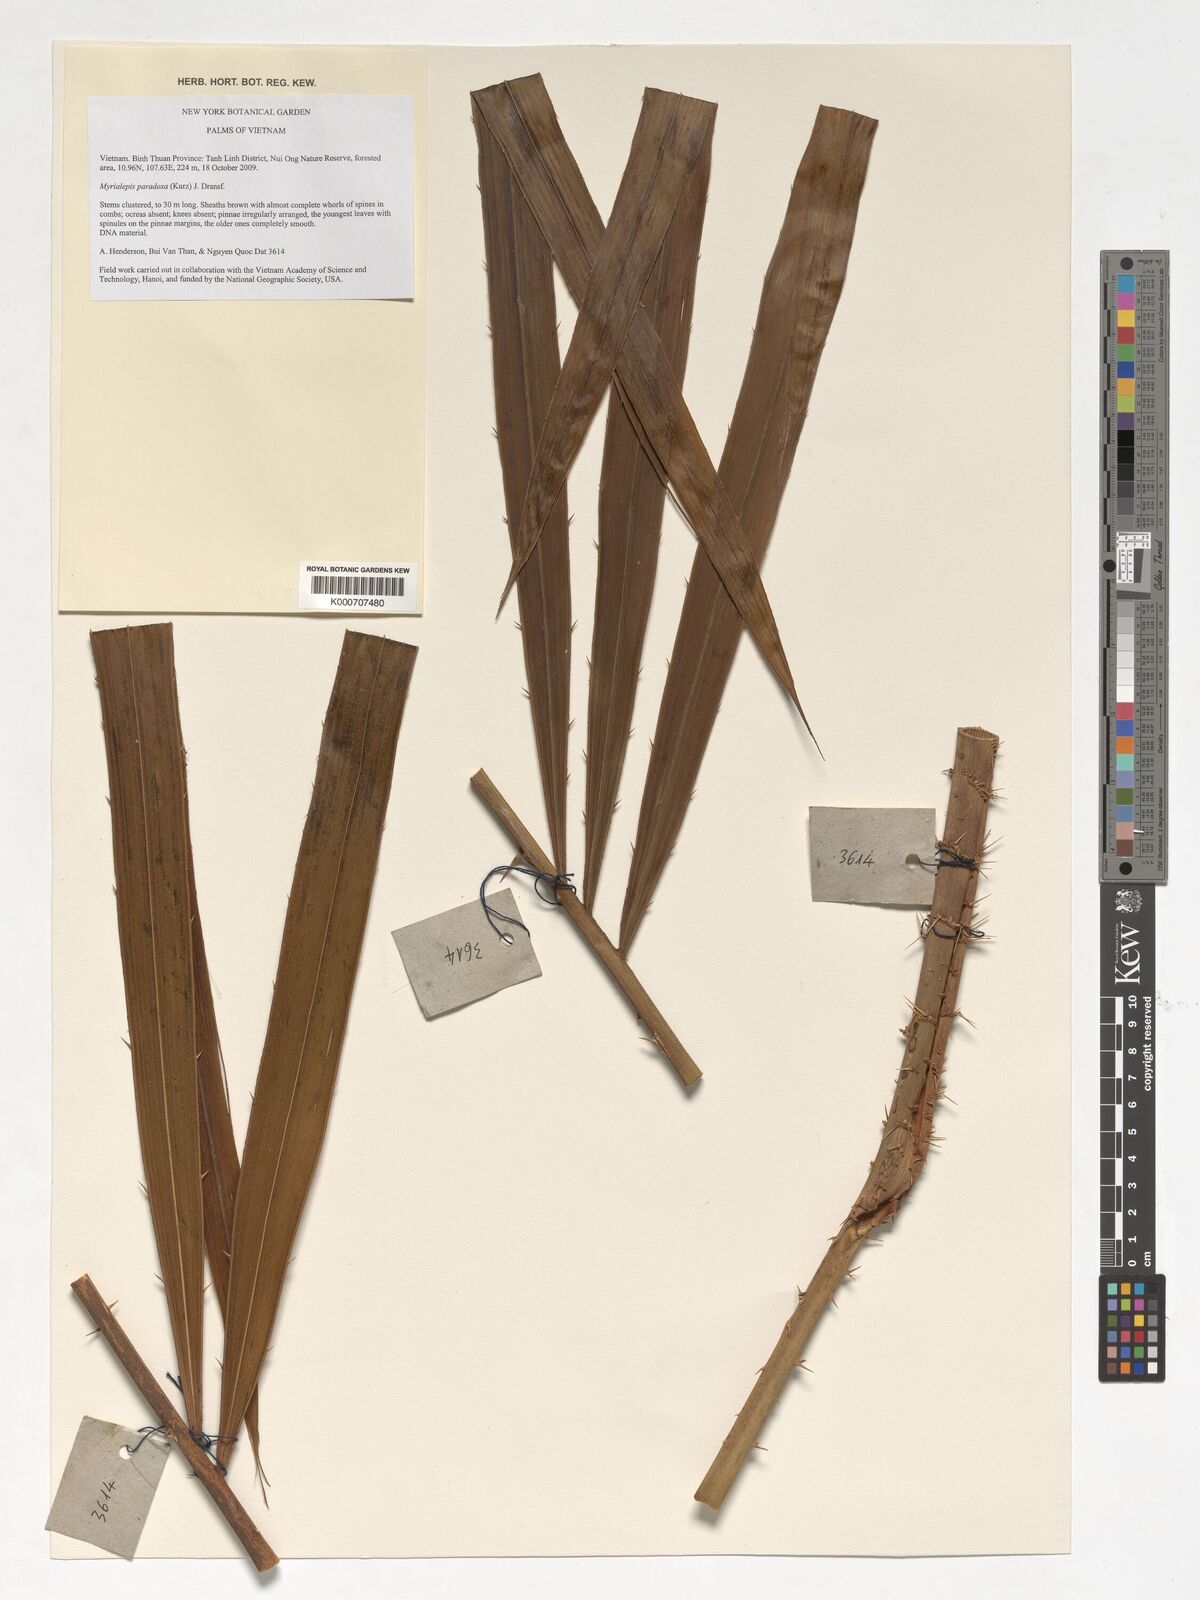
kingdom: Plantae
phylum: Tracheophyta
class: Liliopsida
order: Arecales
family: Arecaceae
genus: Myrialepis
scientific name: Myrialepis paradoxa
